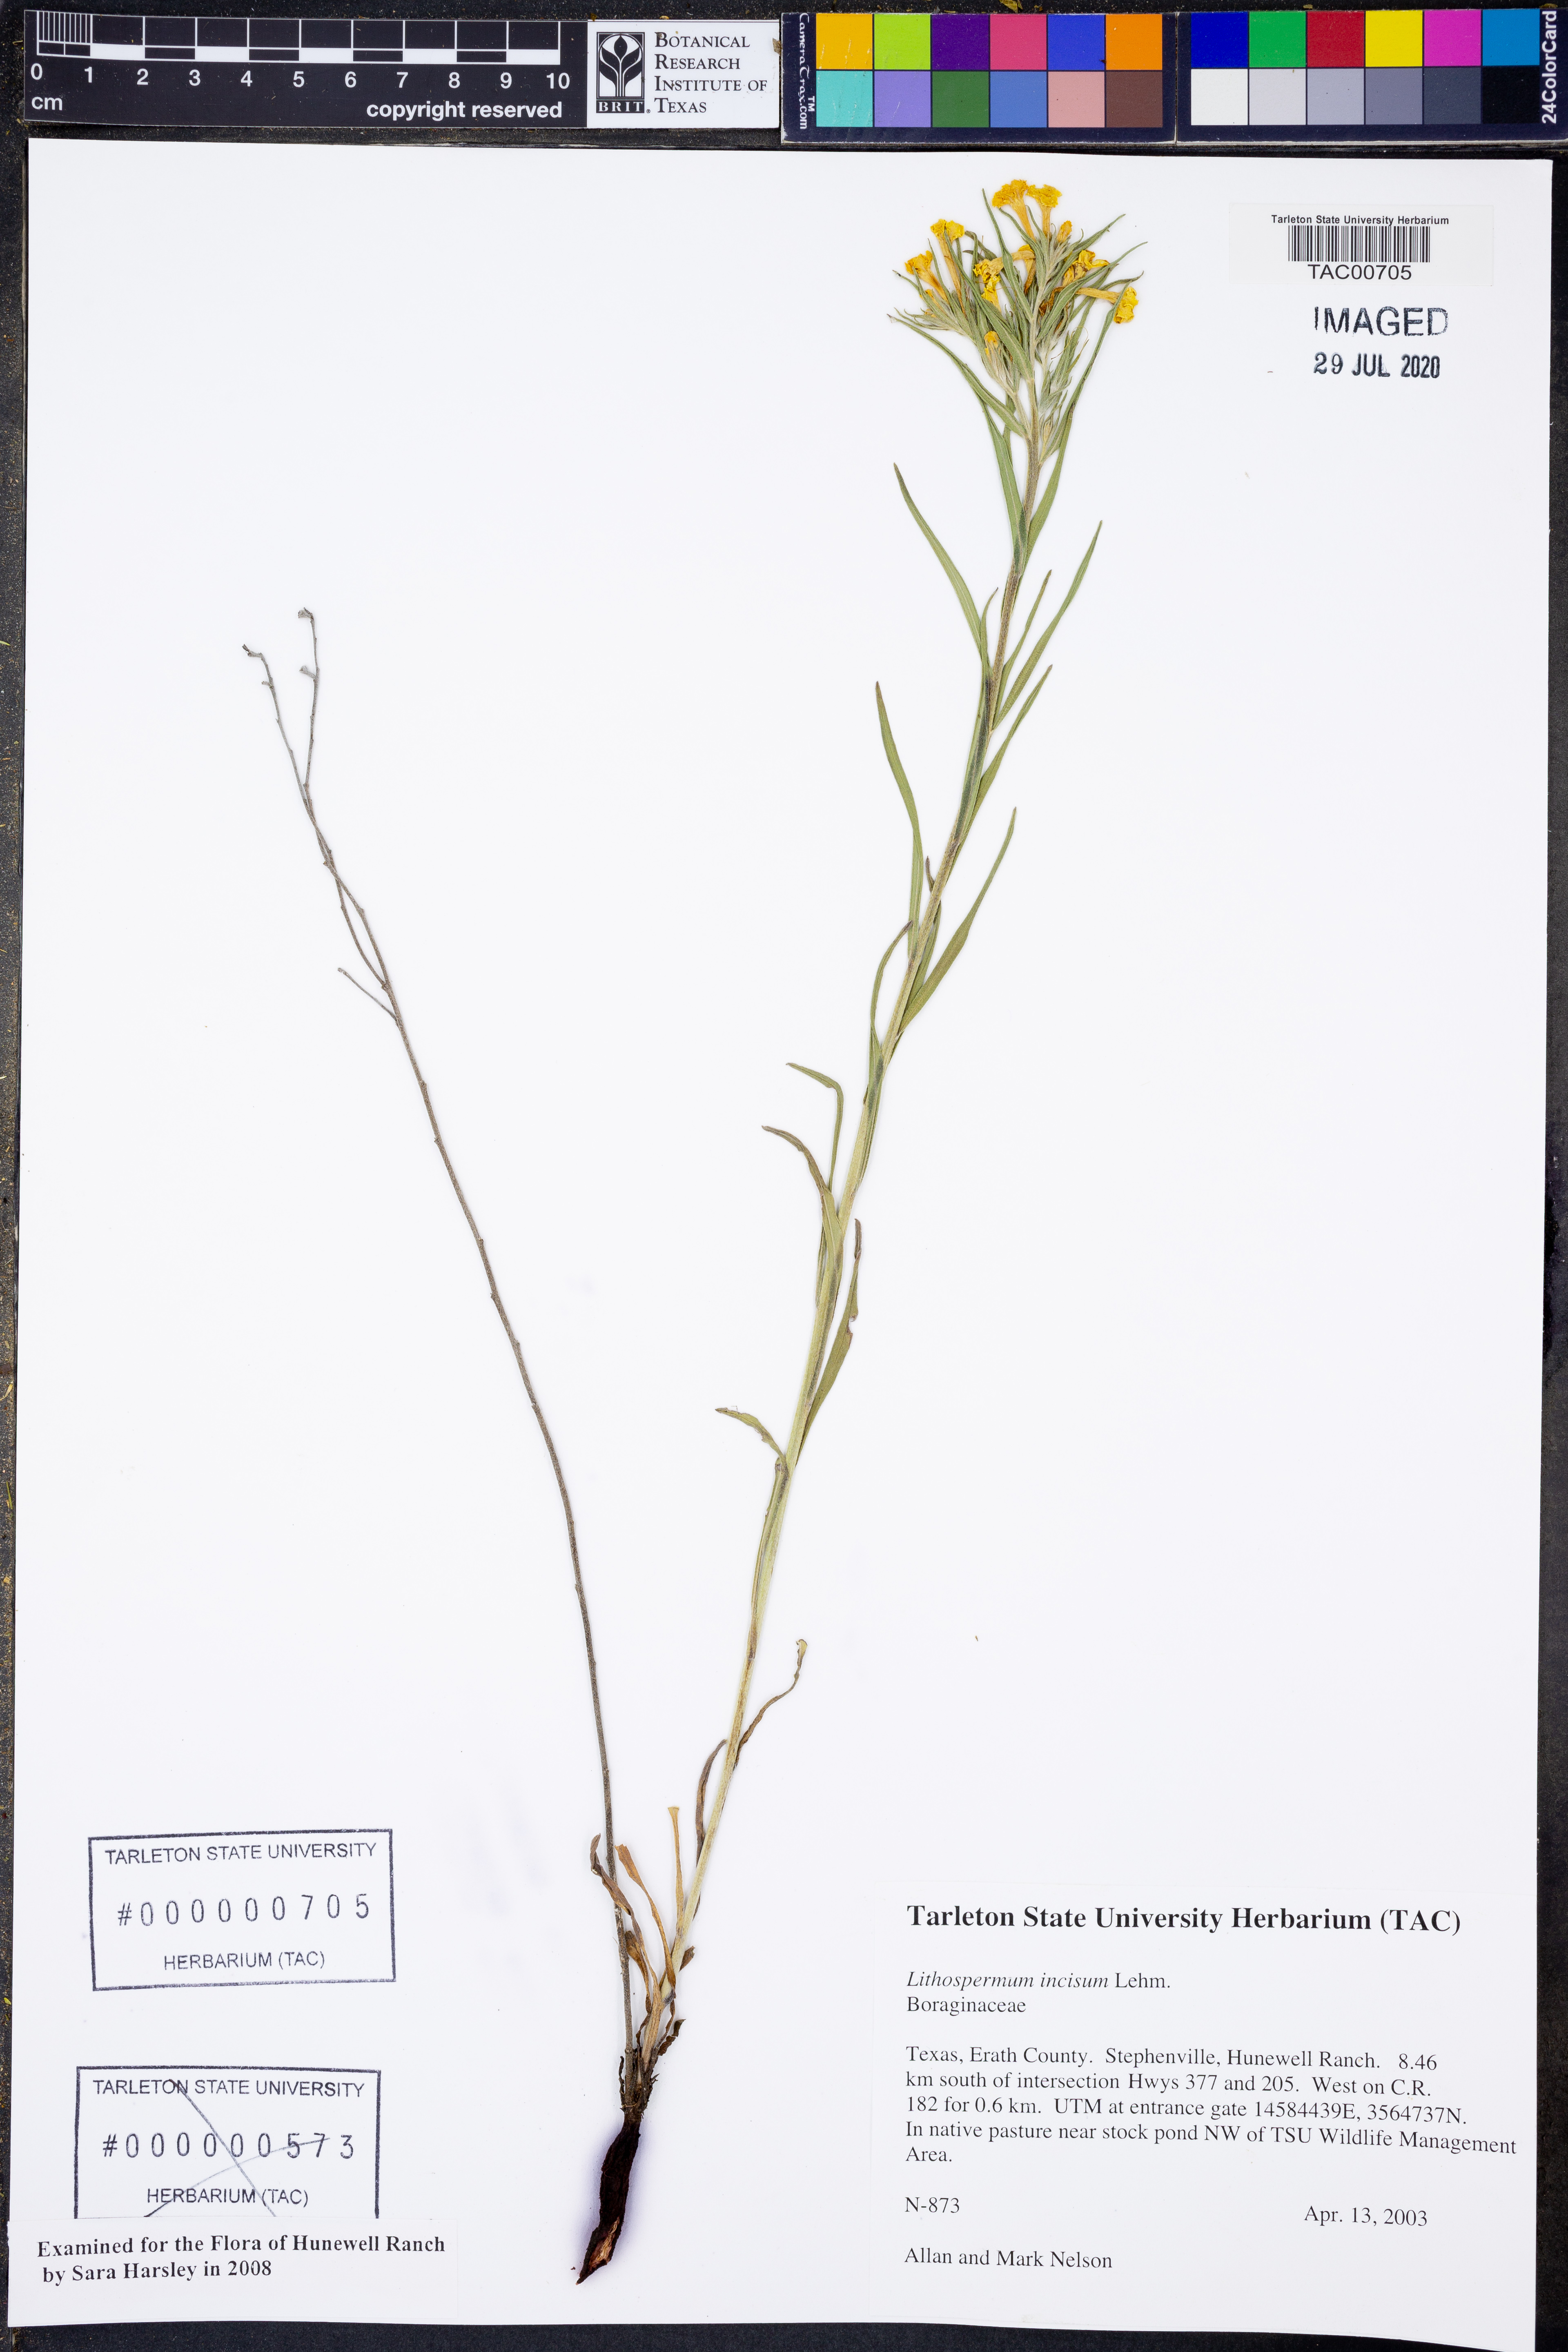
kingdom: Plantae
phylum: Tracheophyta
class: Magnoliopsida
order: Boraginales
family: Boraginaceae
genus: Lithospermum
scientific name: Lithospermum incisum
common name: Fringed gromwell
